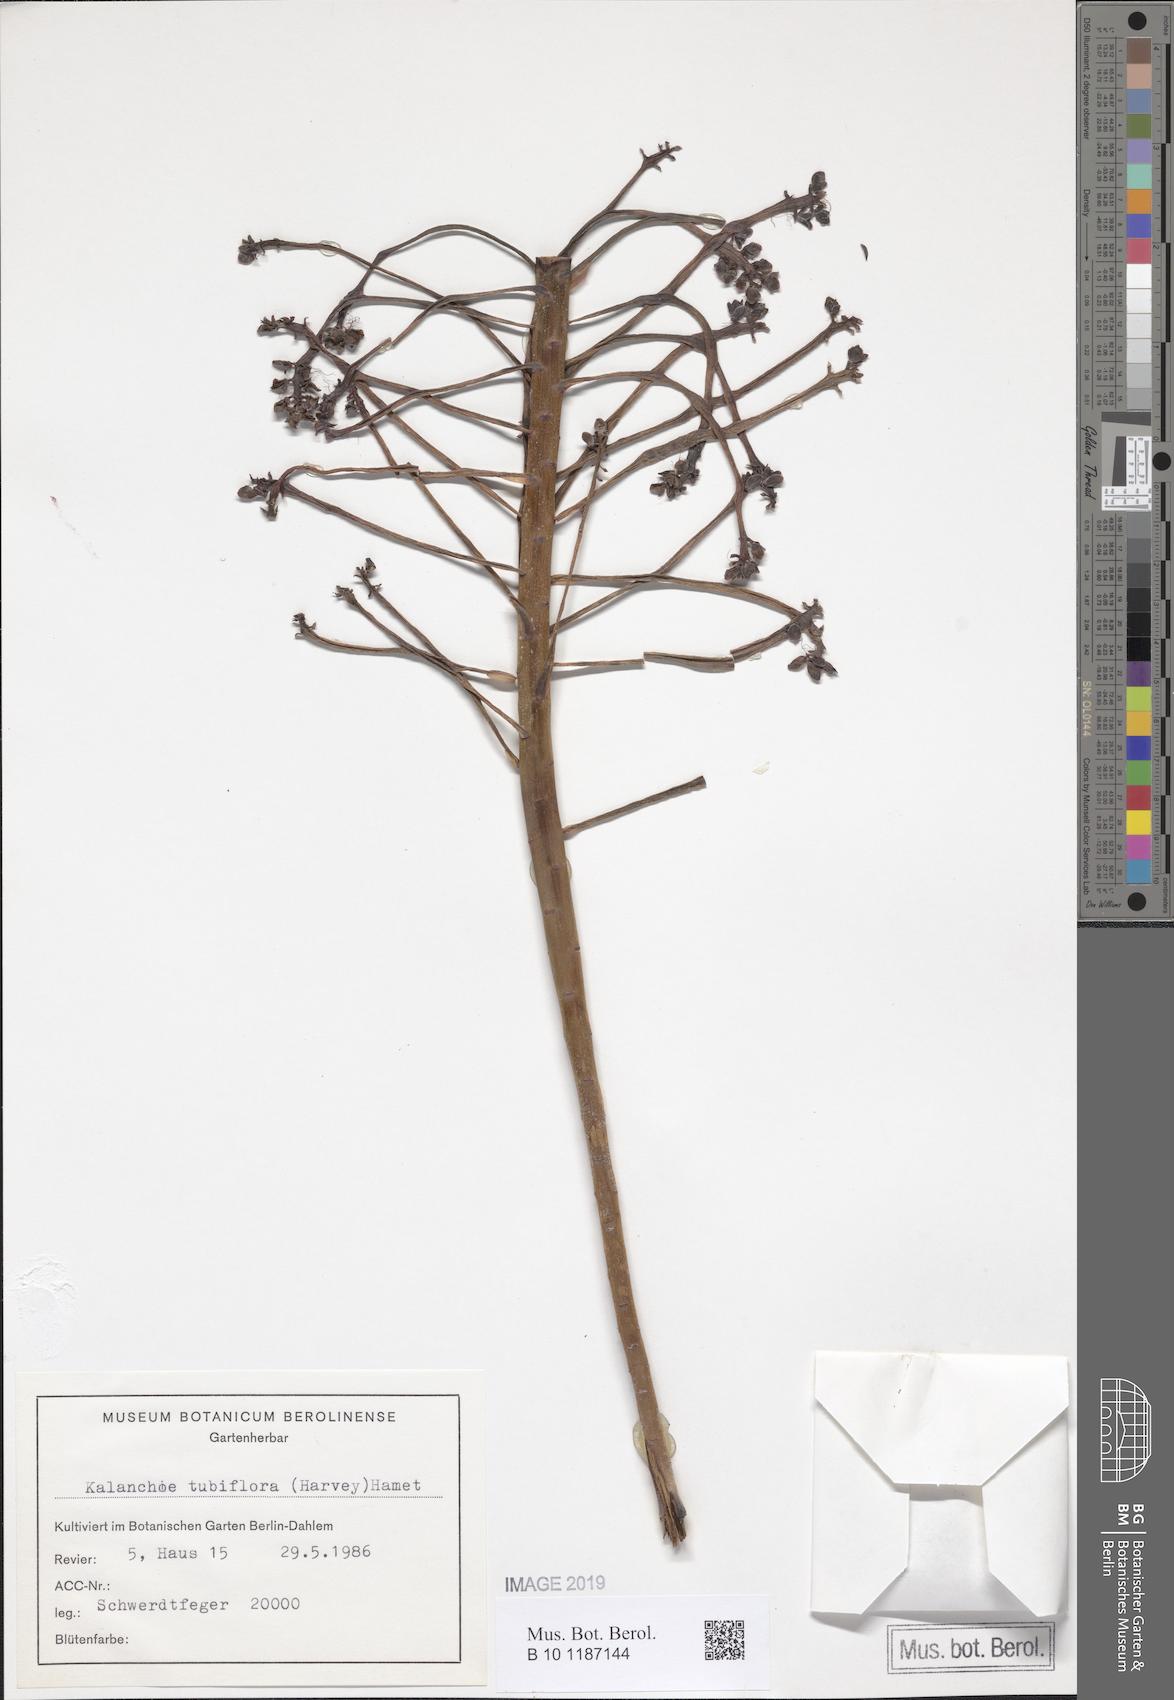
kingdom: Plantae
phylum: Tracheophyta
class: Magnoliopsida
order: Saxifragales
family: Crassulaceae
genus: Kalanchoe
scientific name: Kalanchoe delagoensis
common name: Chandelier plant
